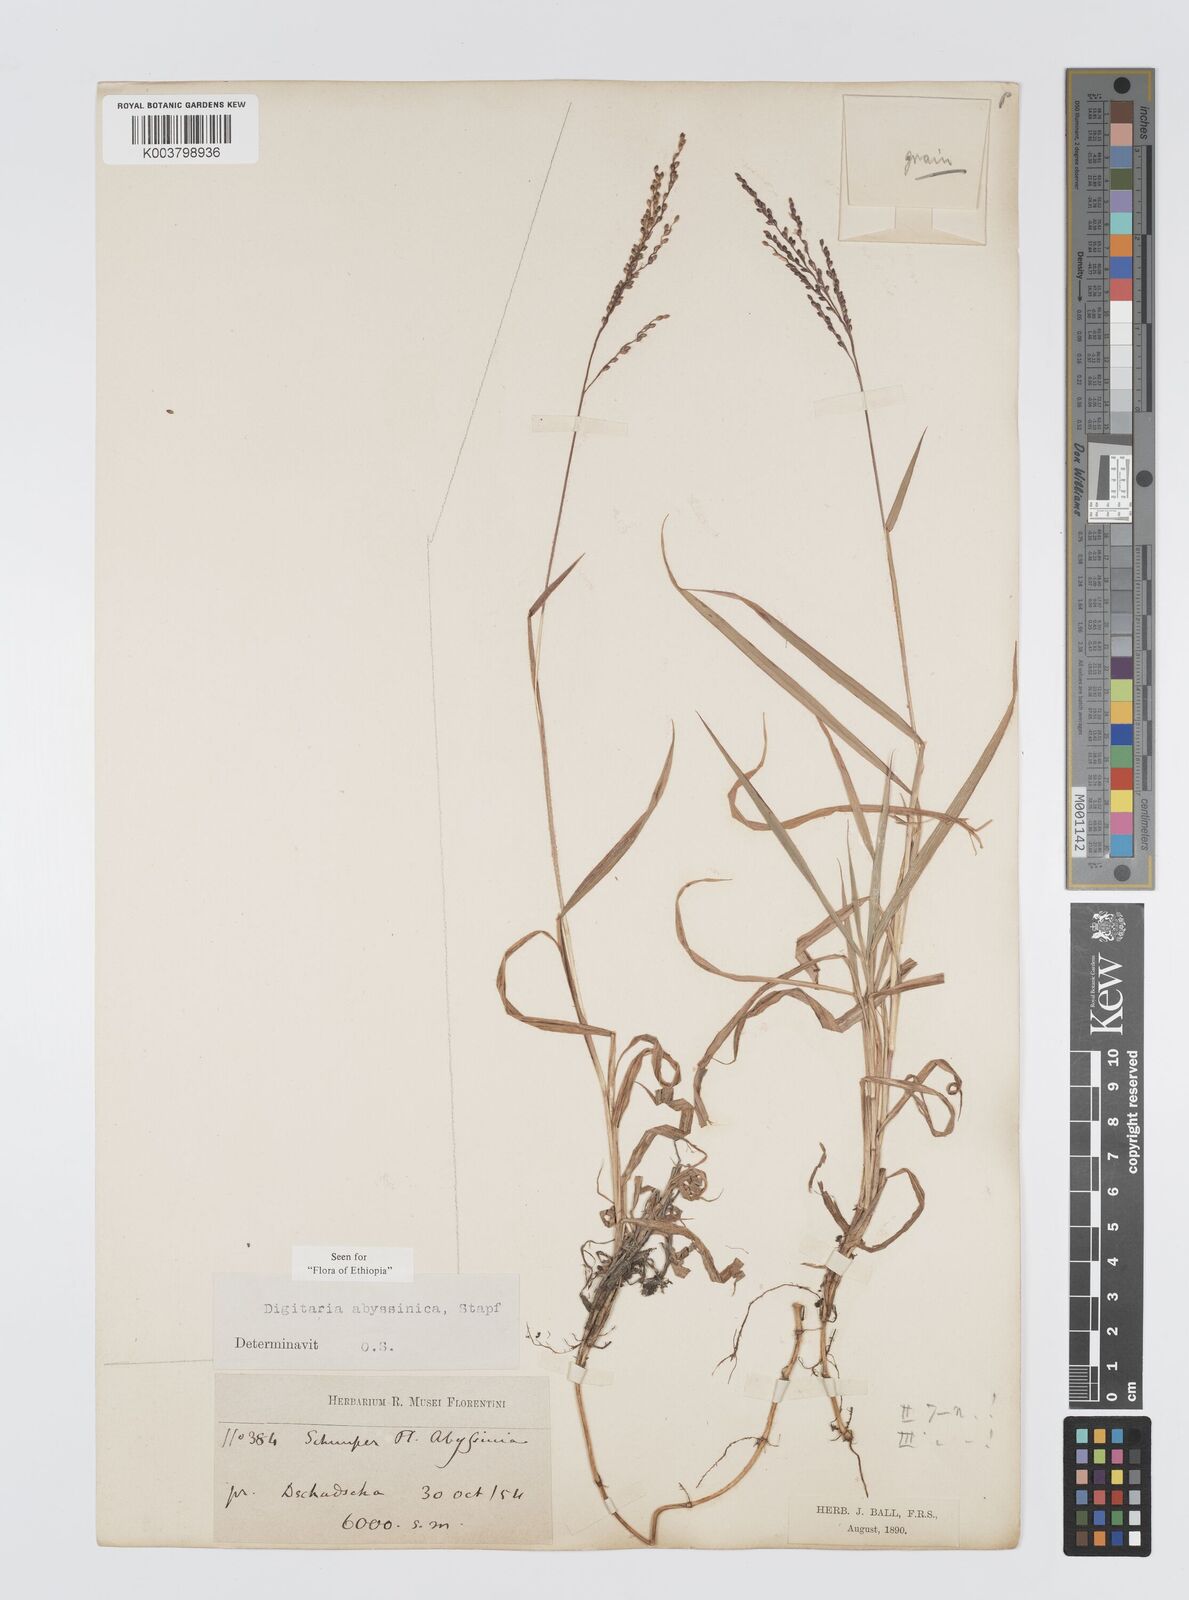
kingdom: Plantae
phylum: Tracheophyta
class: Liliopsida
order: Poales
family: Poaceae
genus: Digitaria
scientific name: Digitaria abyssinica
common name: African couchgrass
